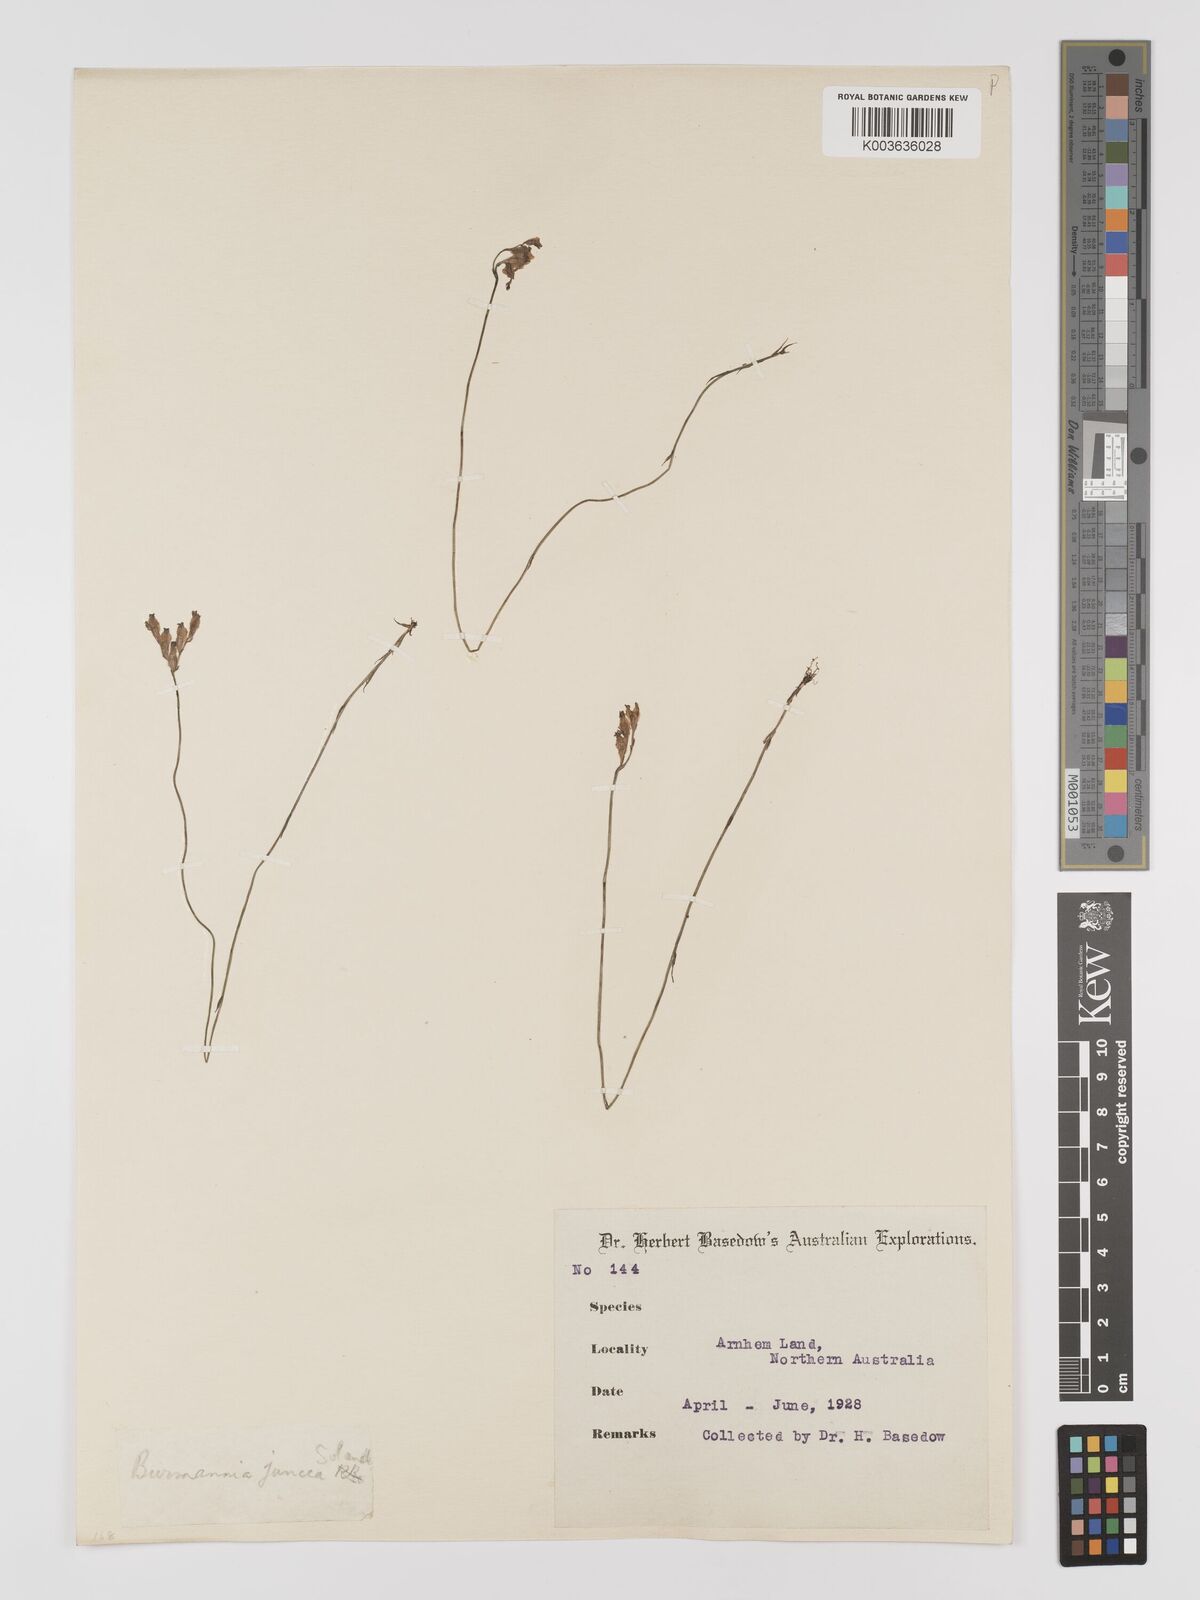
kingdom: Plantae
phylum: Tracheophyta
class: Liliopsida
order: Dioscoreales
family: Burmanniaceae
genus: Burmannia
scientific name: Burmannia juncea
